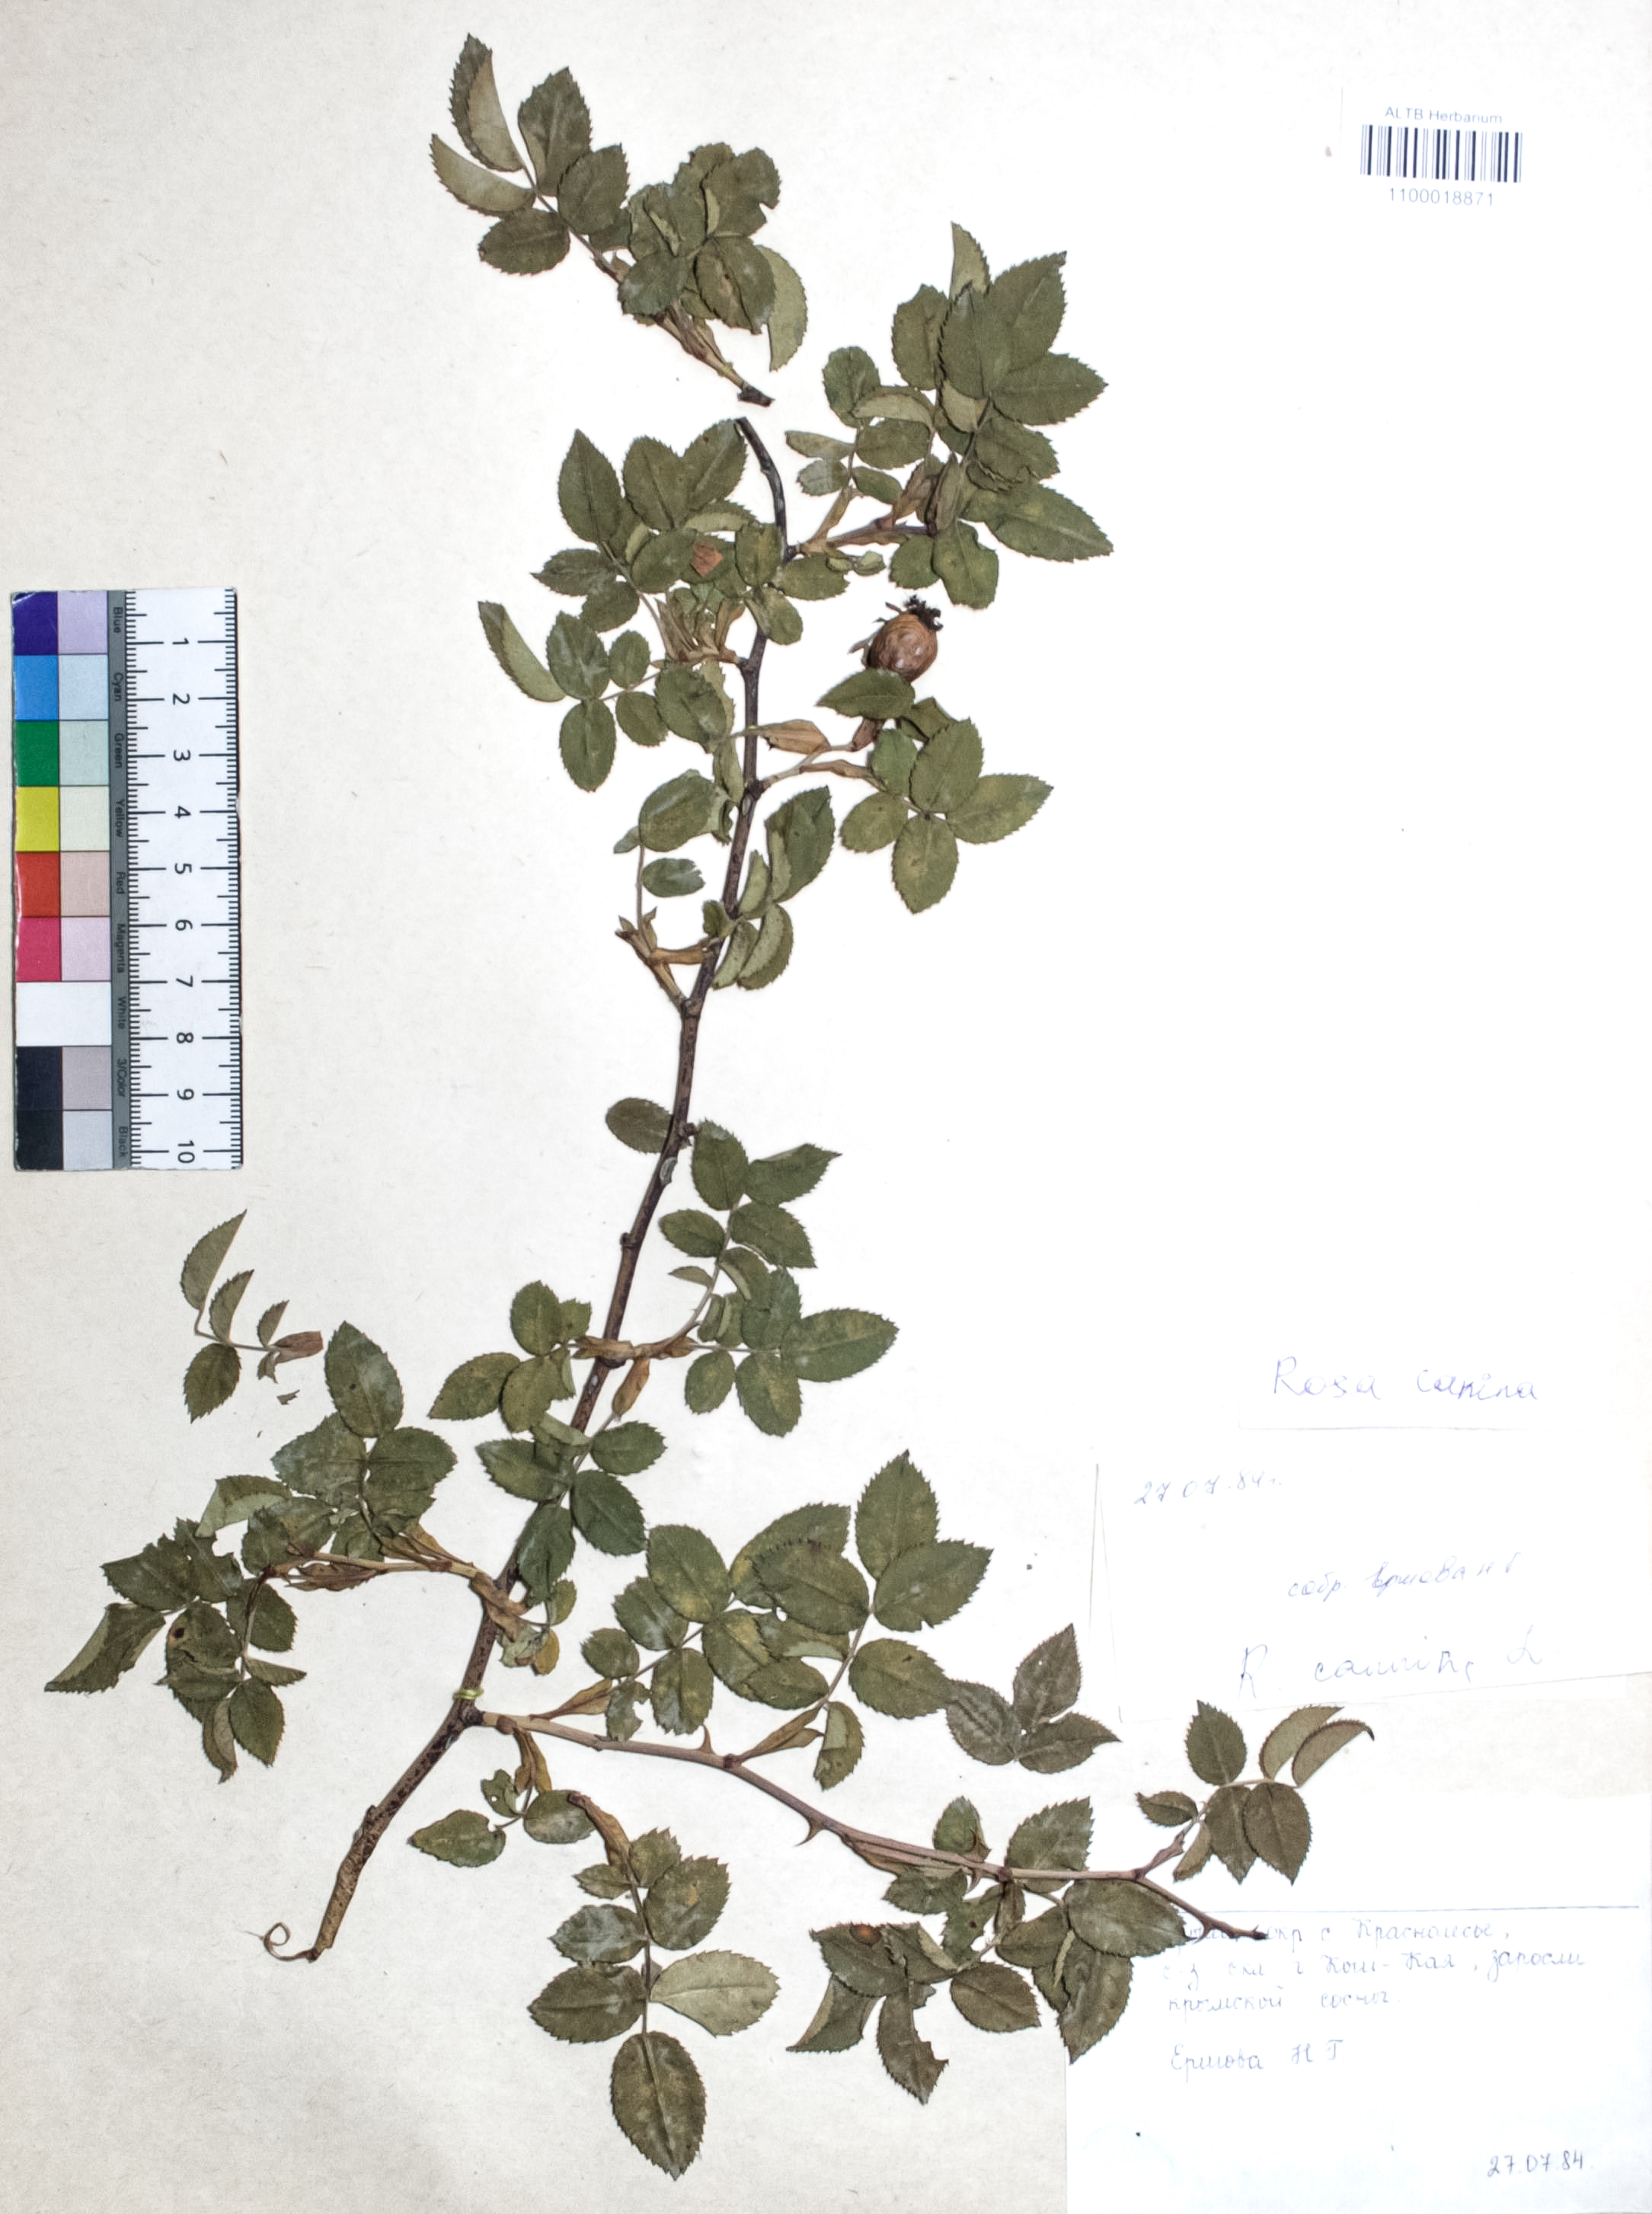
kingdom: Plantae
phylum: Tracheophyta
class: Magnoliopsida
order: Rosales
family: Rosaceae
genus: Rosa
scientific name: Rosa canina
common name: Dog rose
